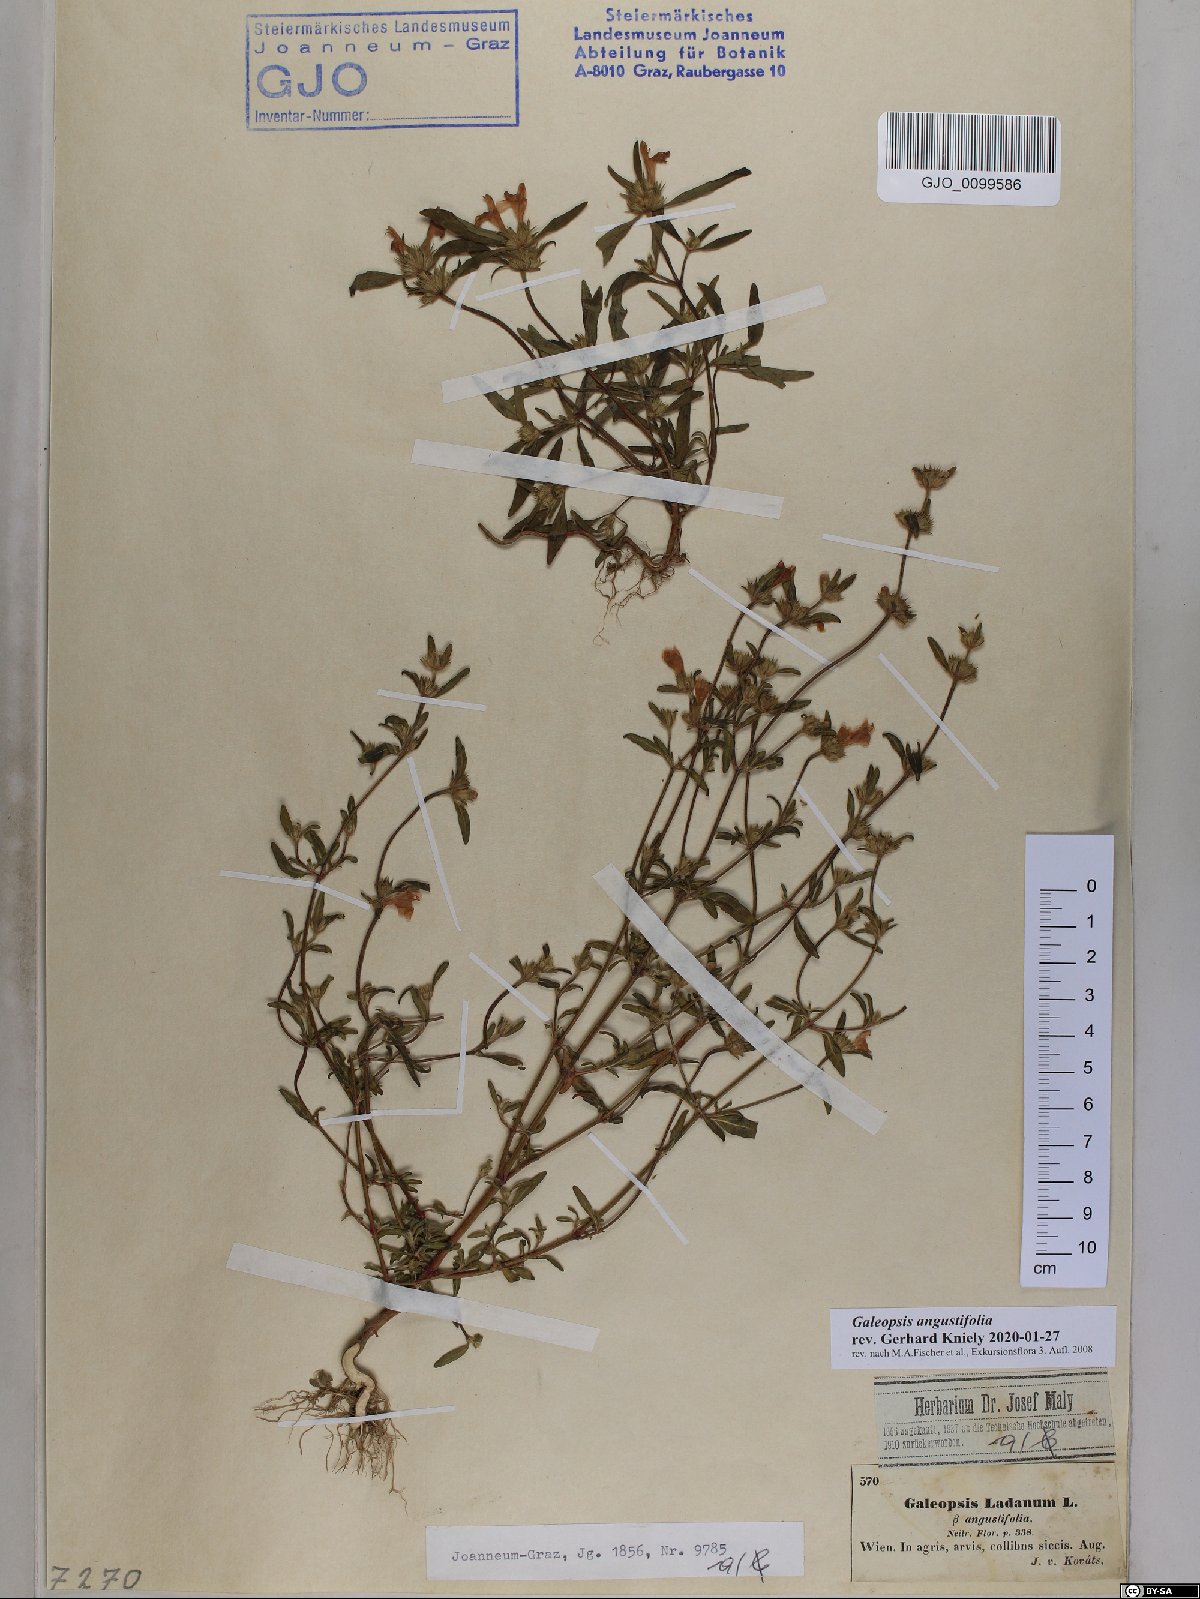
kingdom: Plantae
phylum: Tracheophyta
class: Magnoliopsida
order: Lamiales
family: Lamiaceae
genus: Galeopsis
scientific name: Galeopsis angustifolia
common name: Red hemp-nettle
